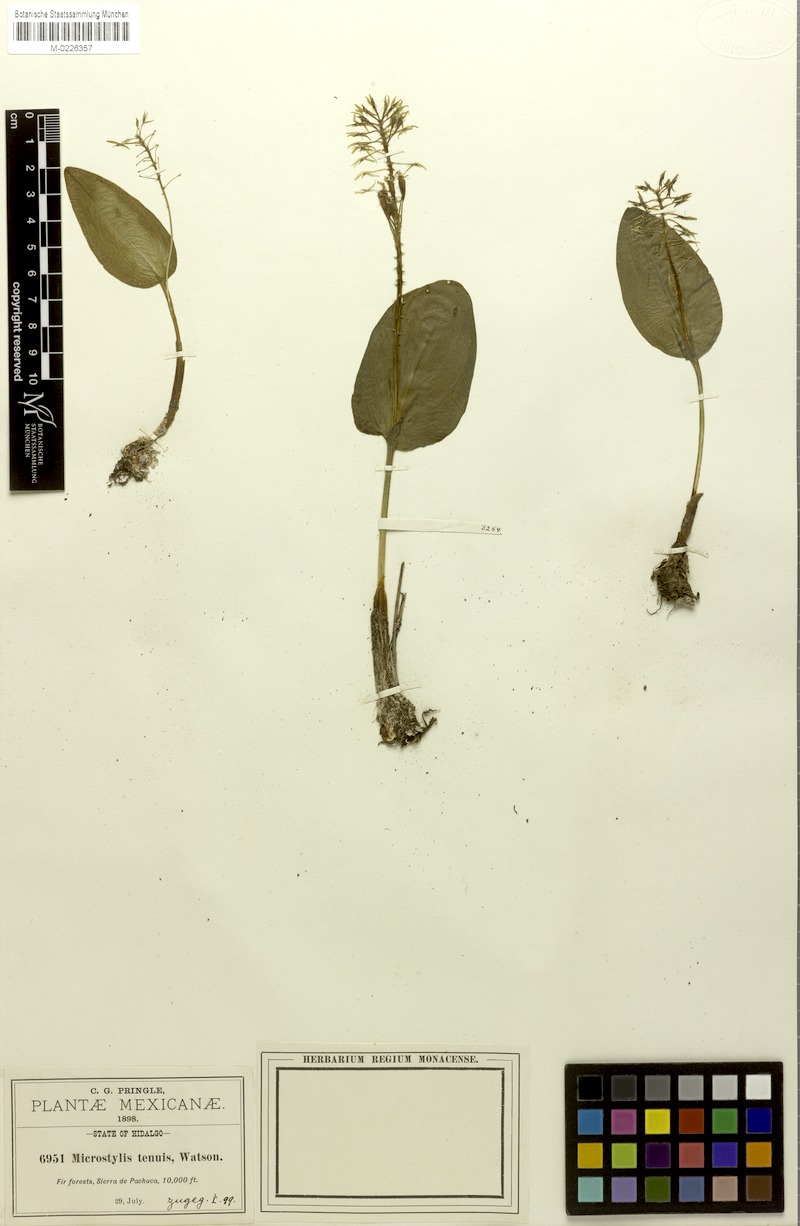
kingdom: Plantae
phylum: Tracheophyta
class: Liliopsida
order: Asparagales
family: Orchidaceae
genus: Malaxis
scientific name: Malaxis abieticola
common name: Arizona adder's-mouth orchid
